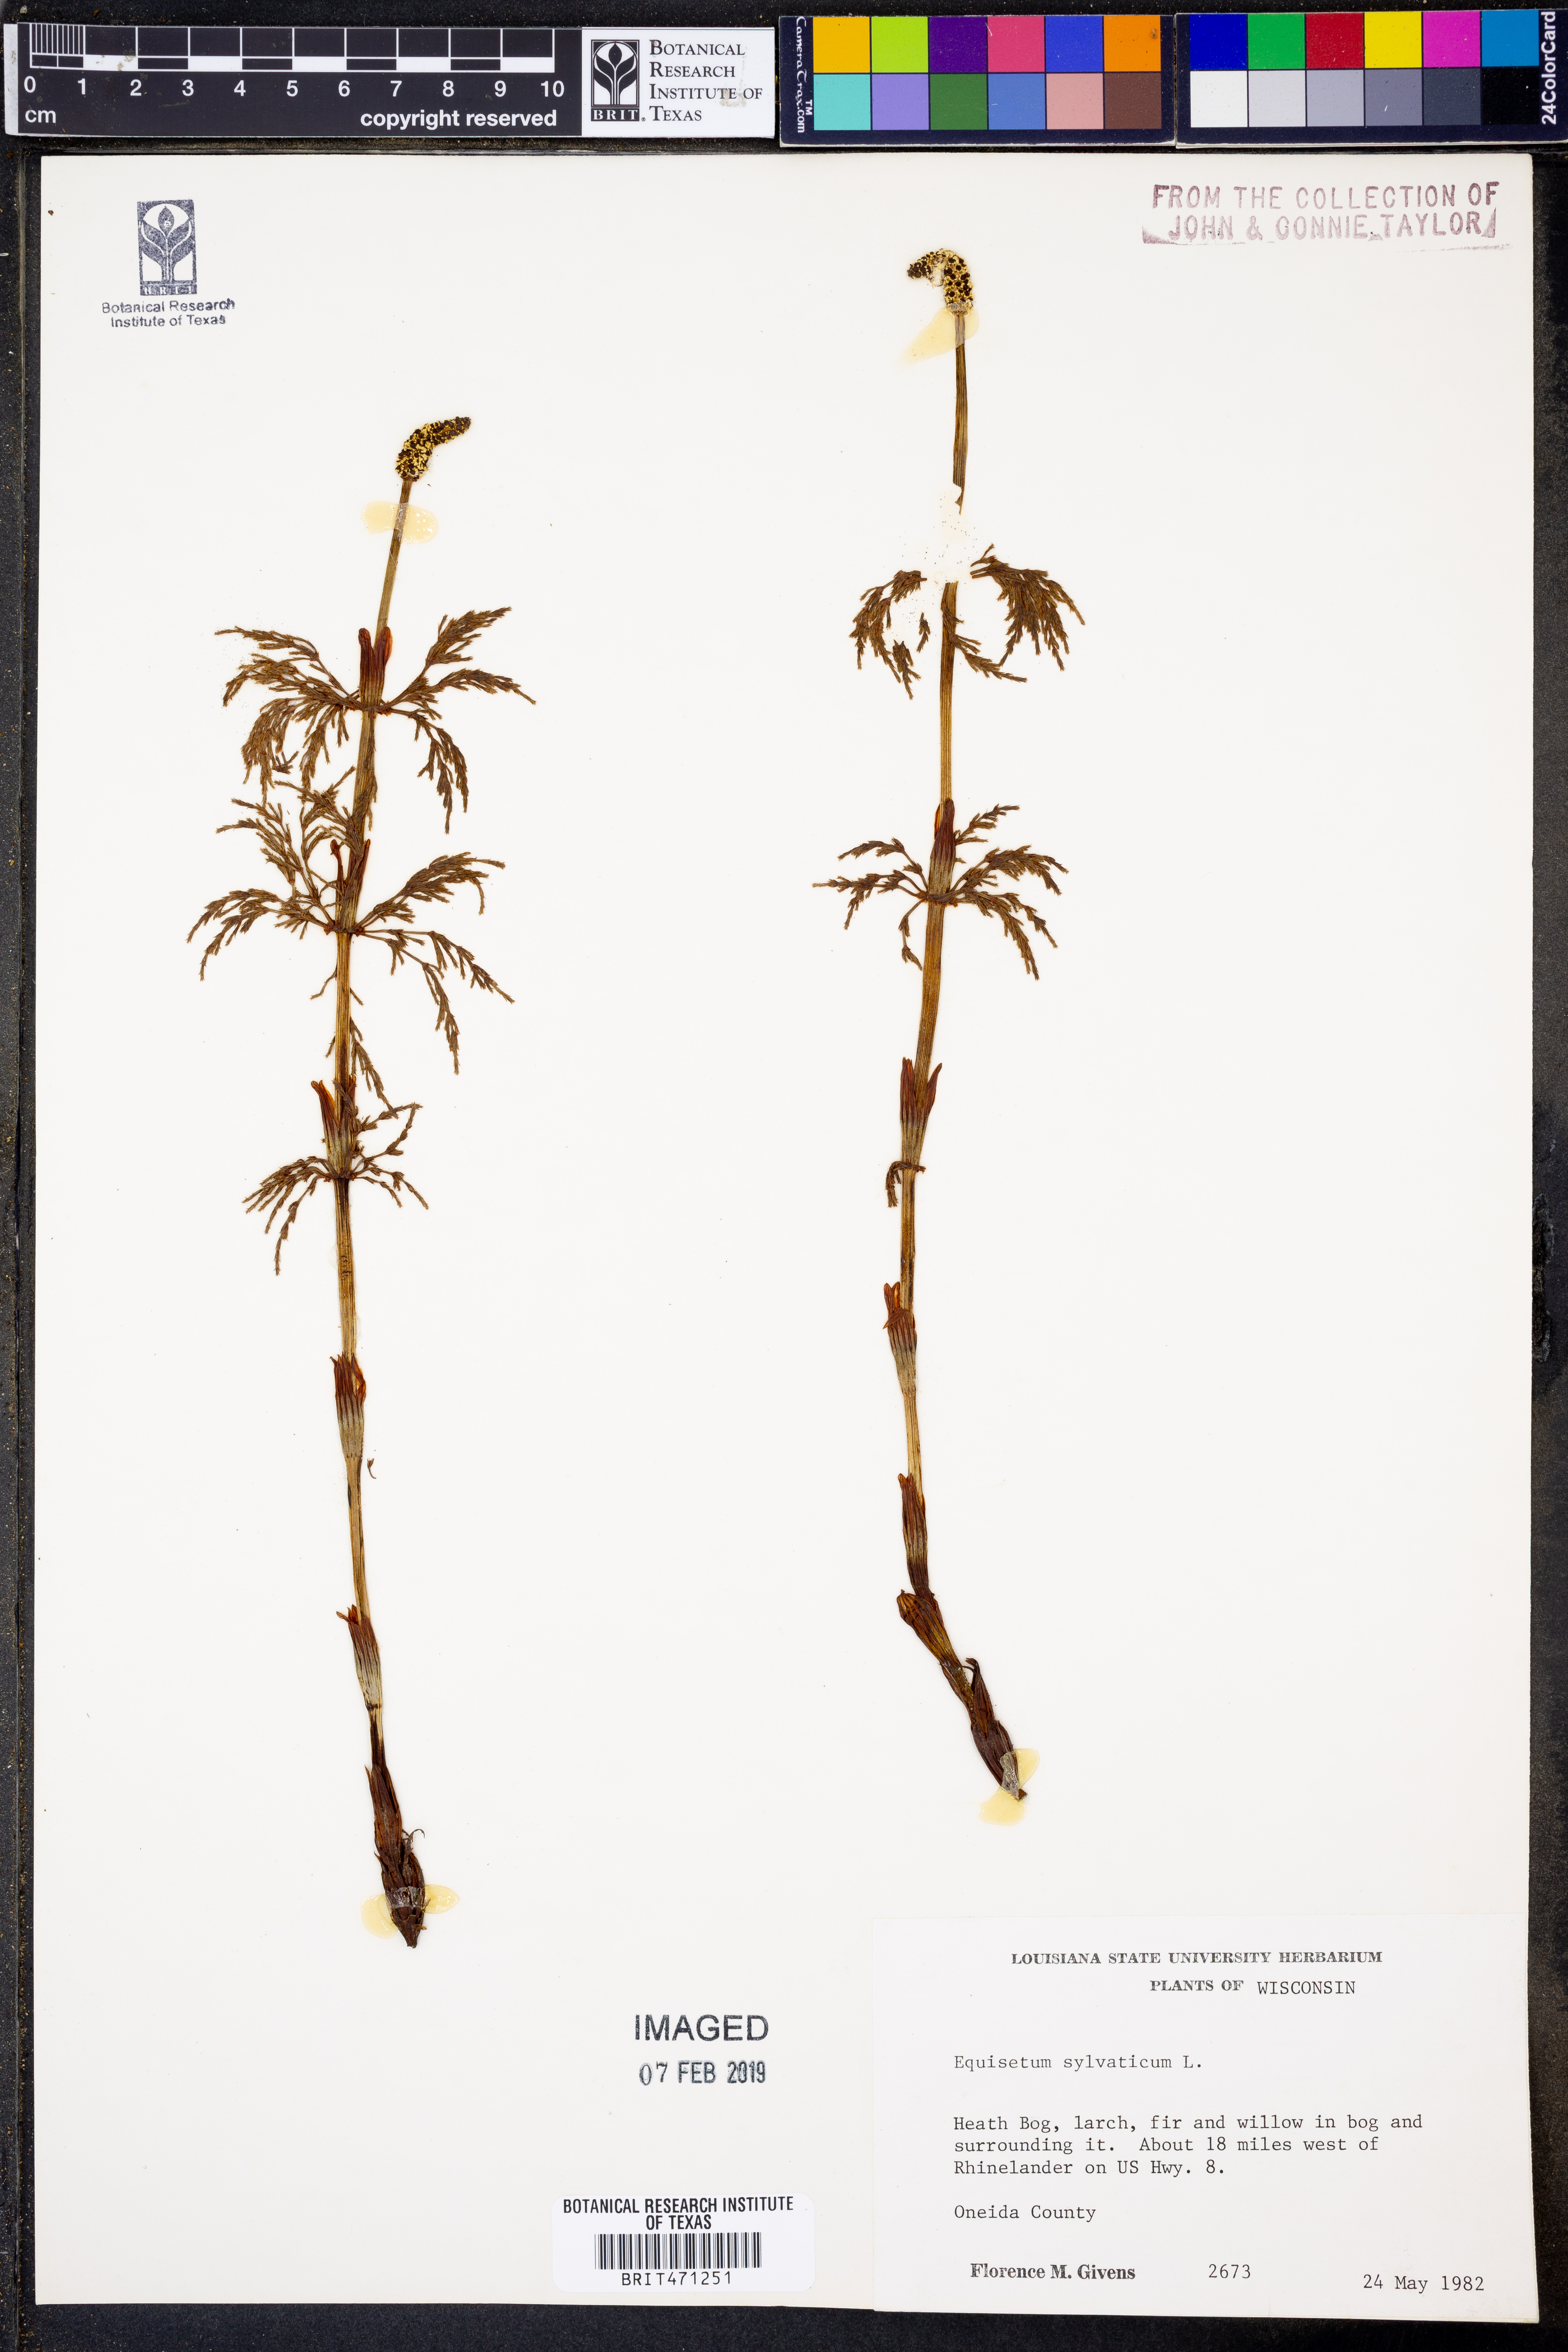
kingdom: Plantae
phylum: Tracheophyta
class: Polypodiopsida
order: Equisetales
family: Equisetaceae
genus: Equisetum
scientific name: Equisetum sylvaticum
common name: Wood horsetail
